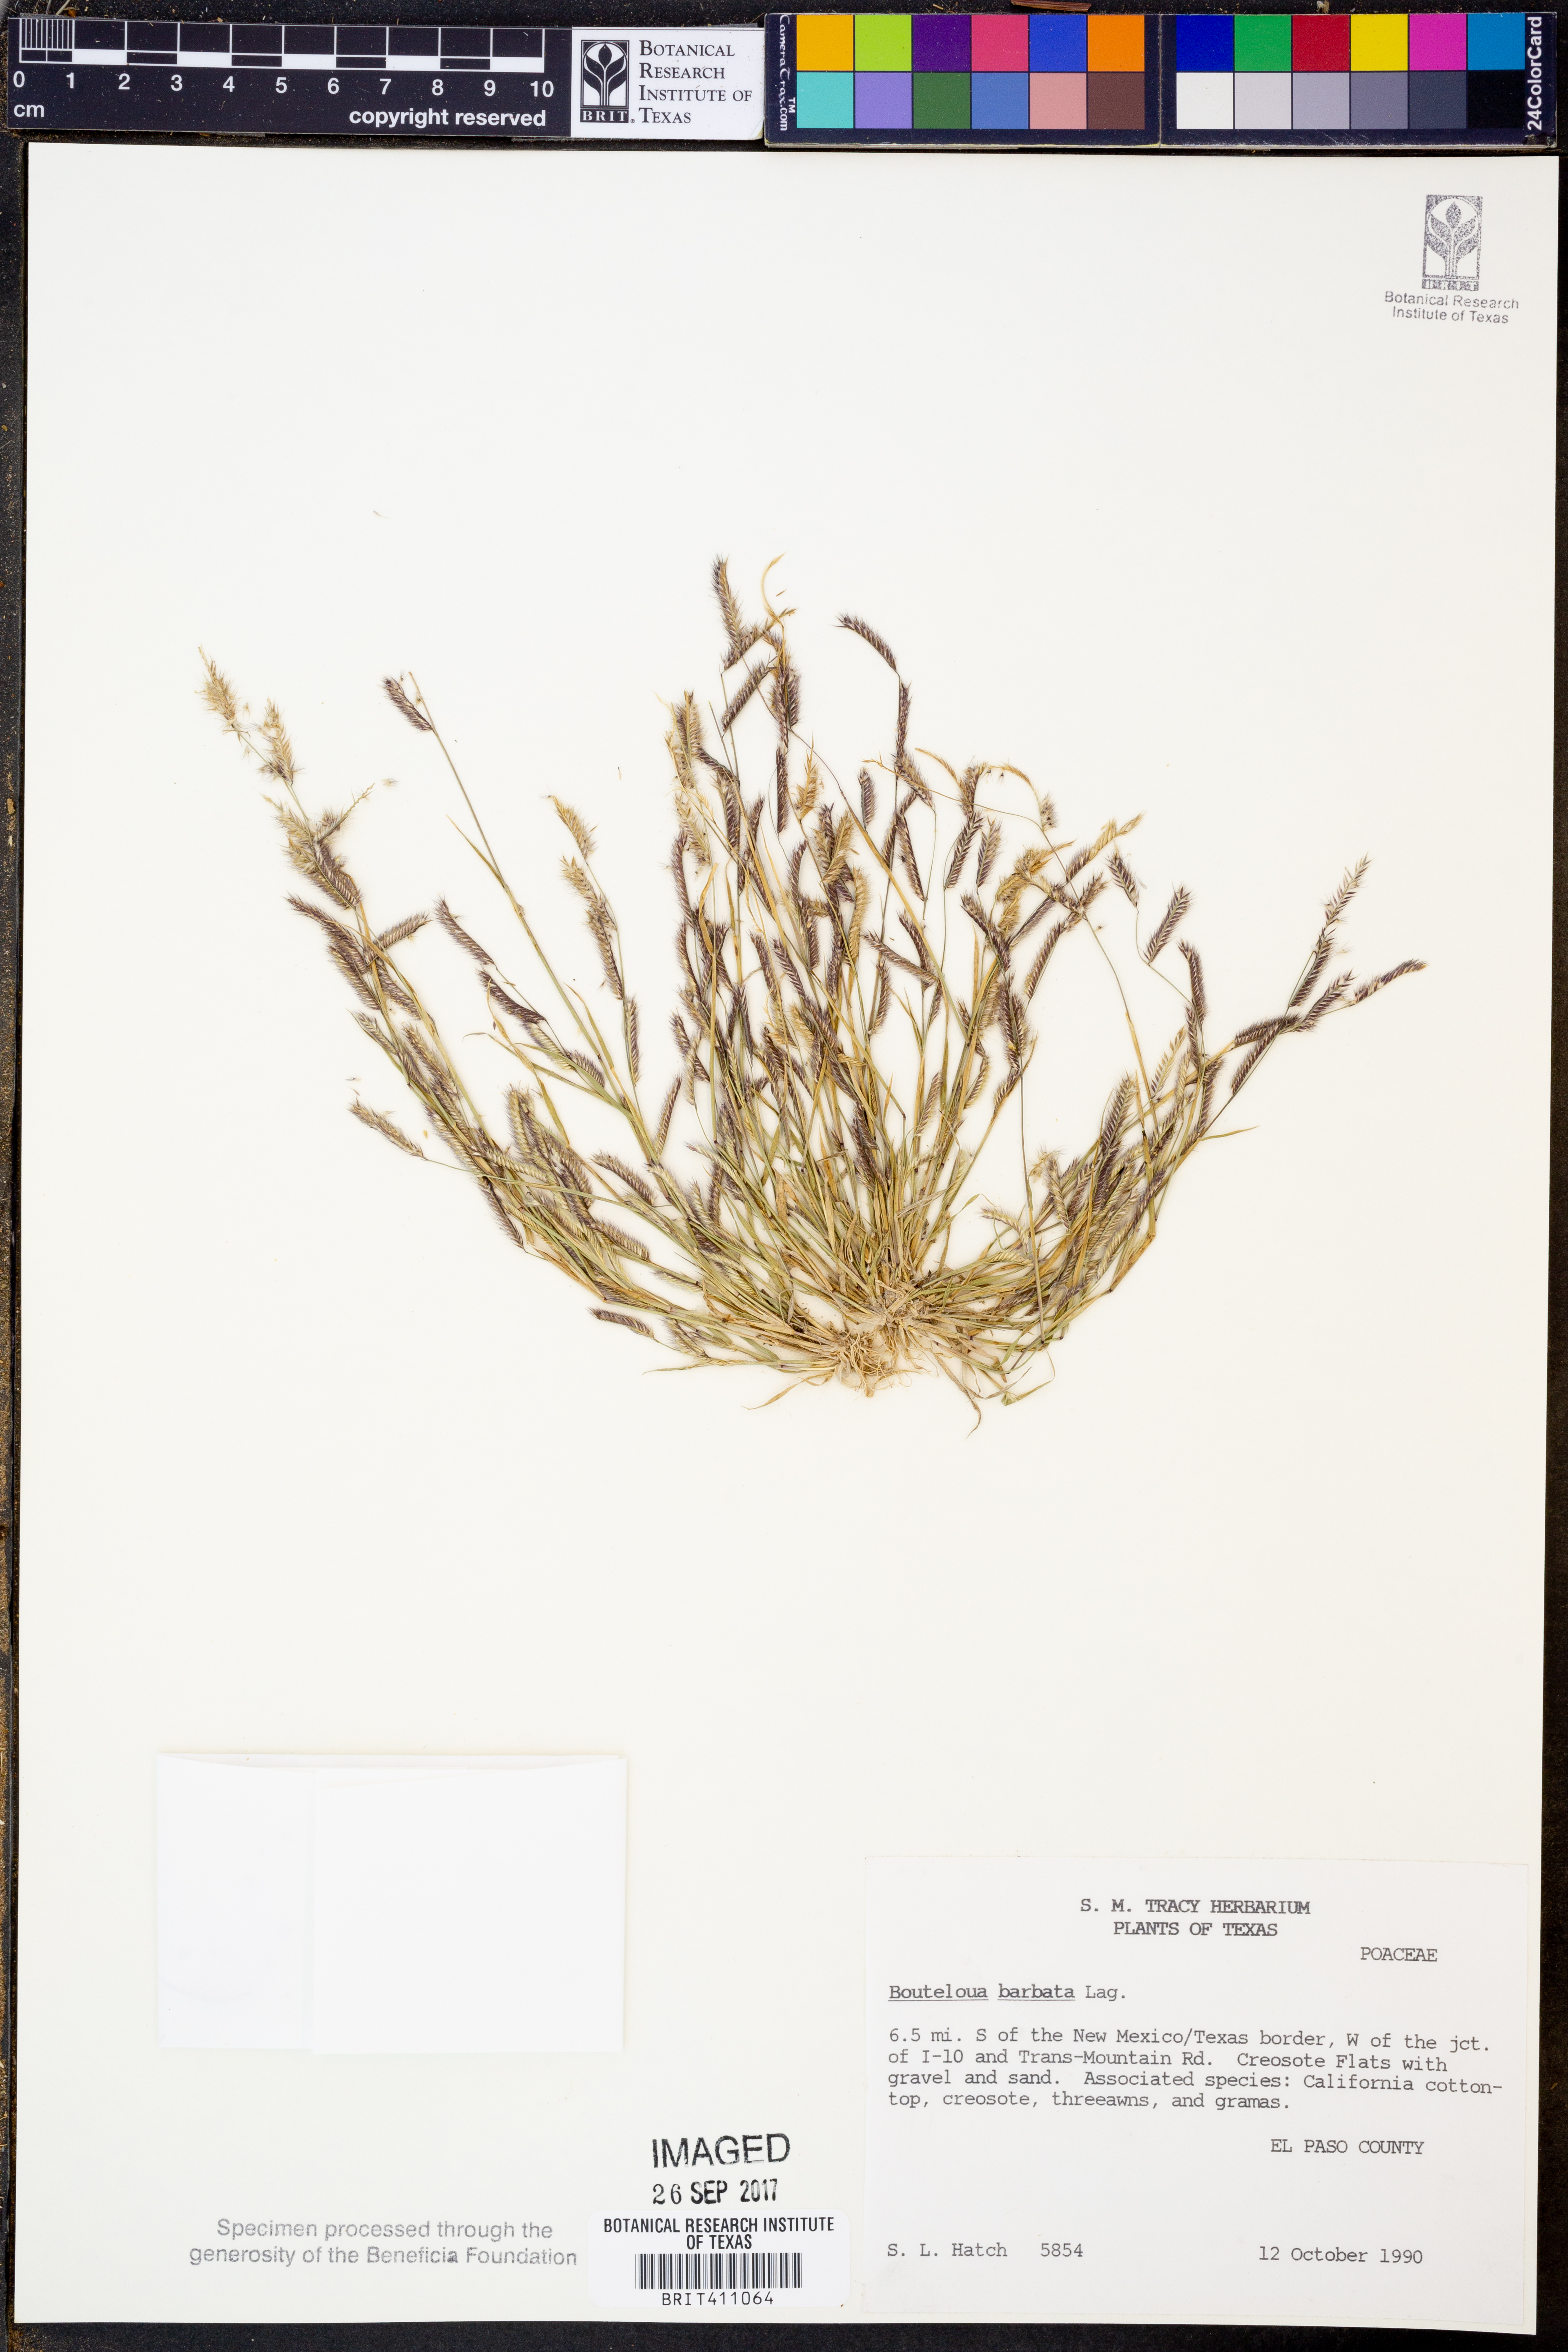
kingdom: Plantae
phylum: Tracheophyta
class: Liliopsida
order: Poales
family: Poaceae
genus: Bouteloua
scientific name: Bouteloua barbata
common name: Six-weeks grama
